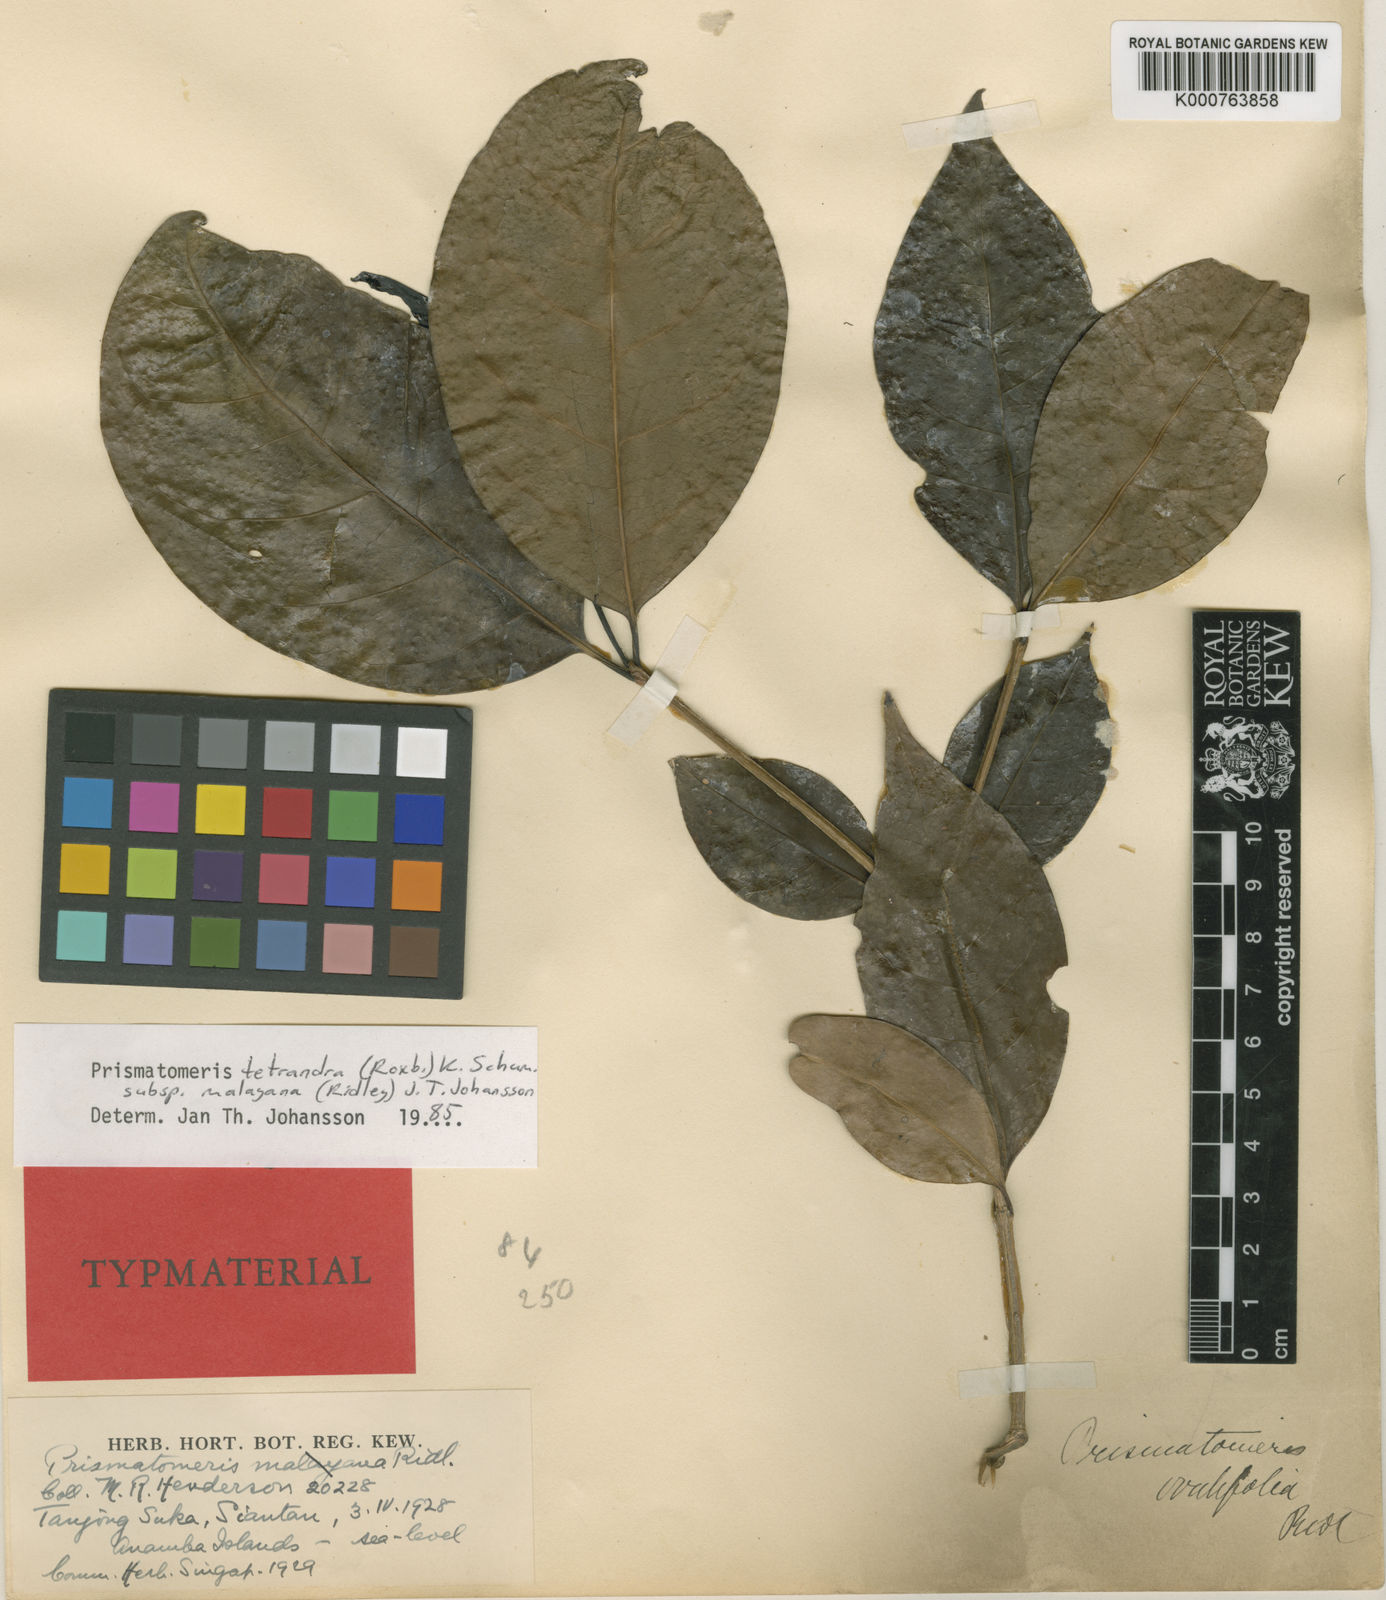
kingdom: Plantae
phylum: Tracheophyta
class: Magnoliopsida
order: Gentianales
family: Rubiaceae
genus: Prismatomeris
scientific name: Prismatomeris tetrandra
